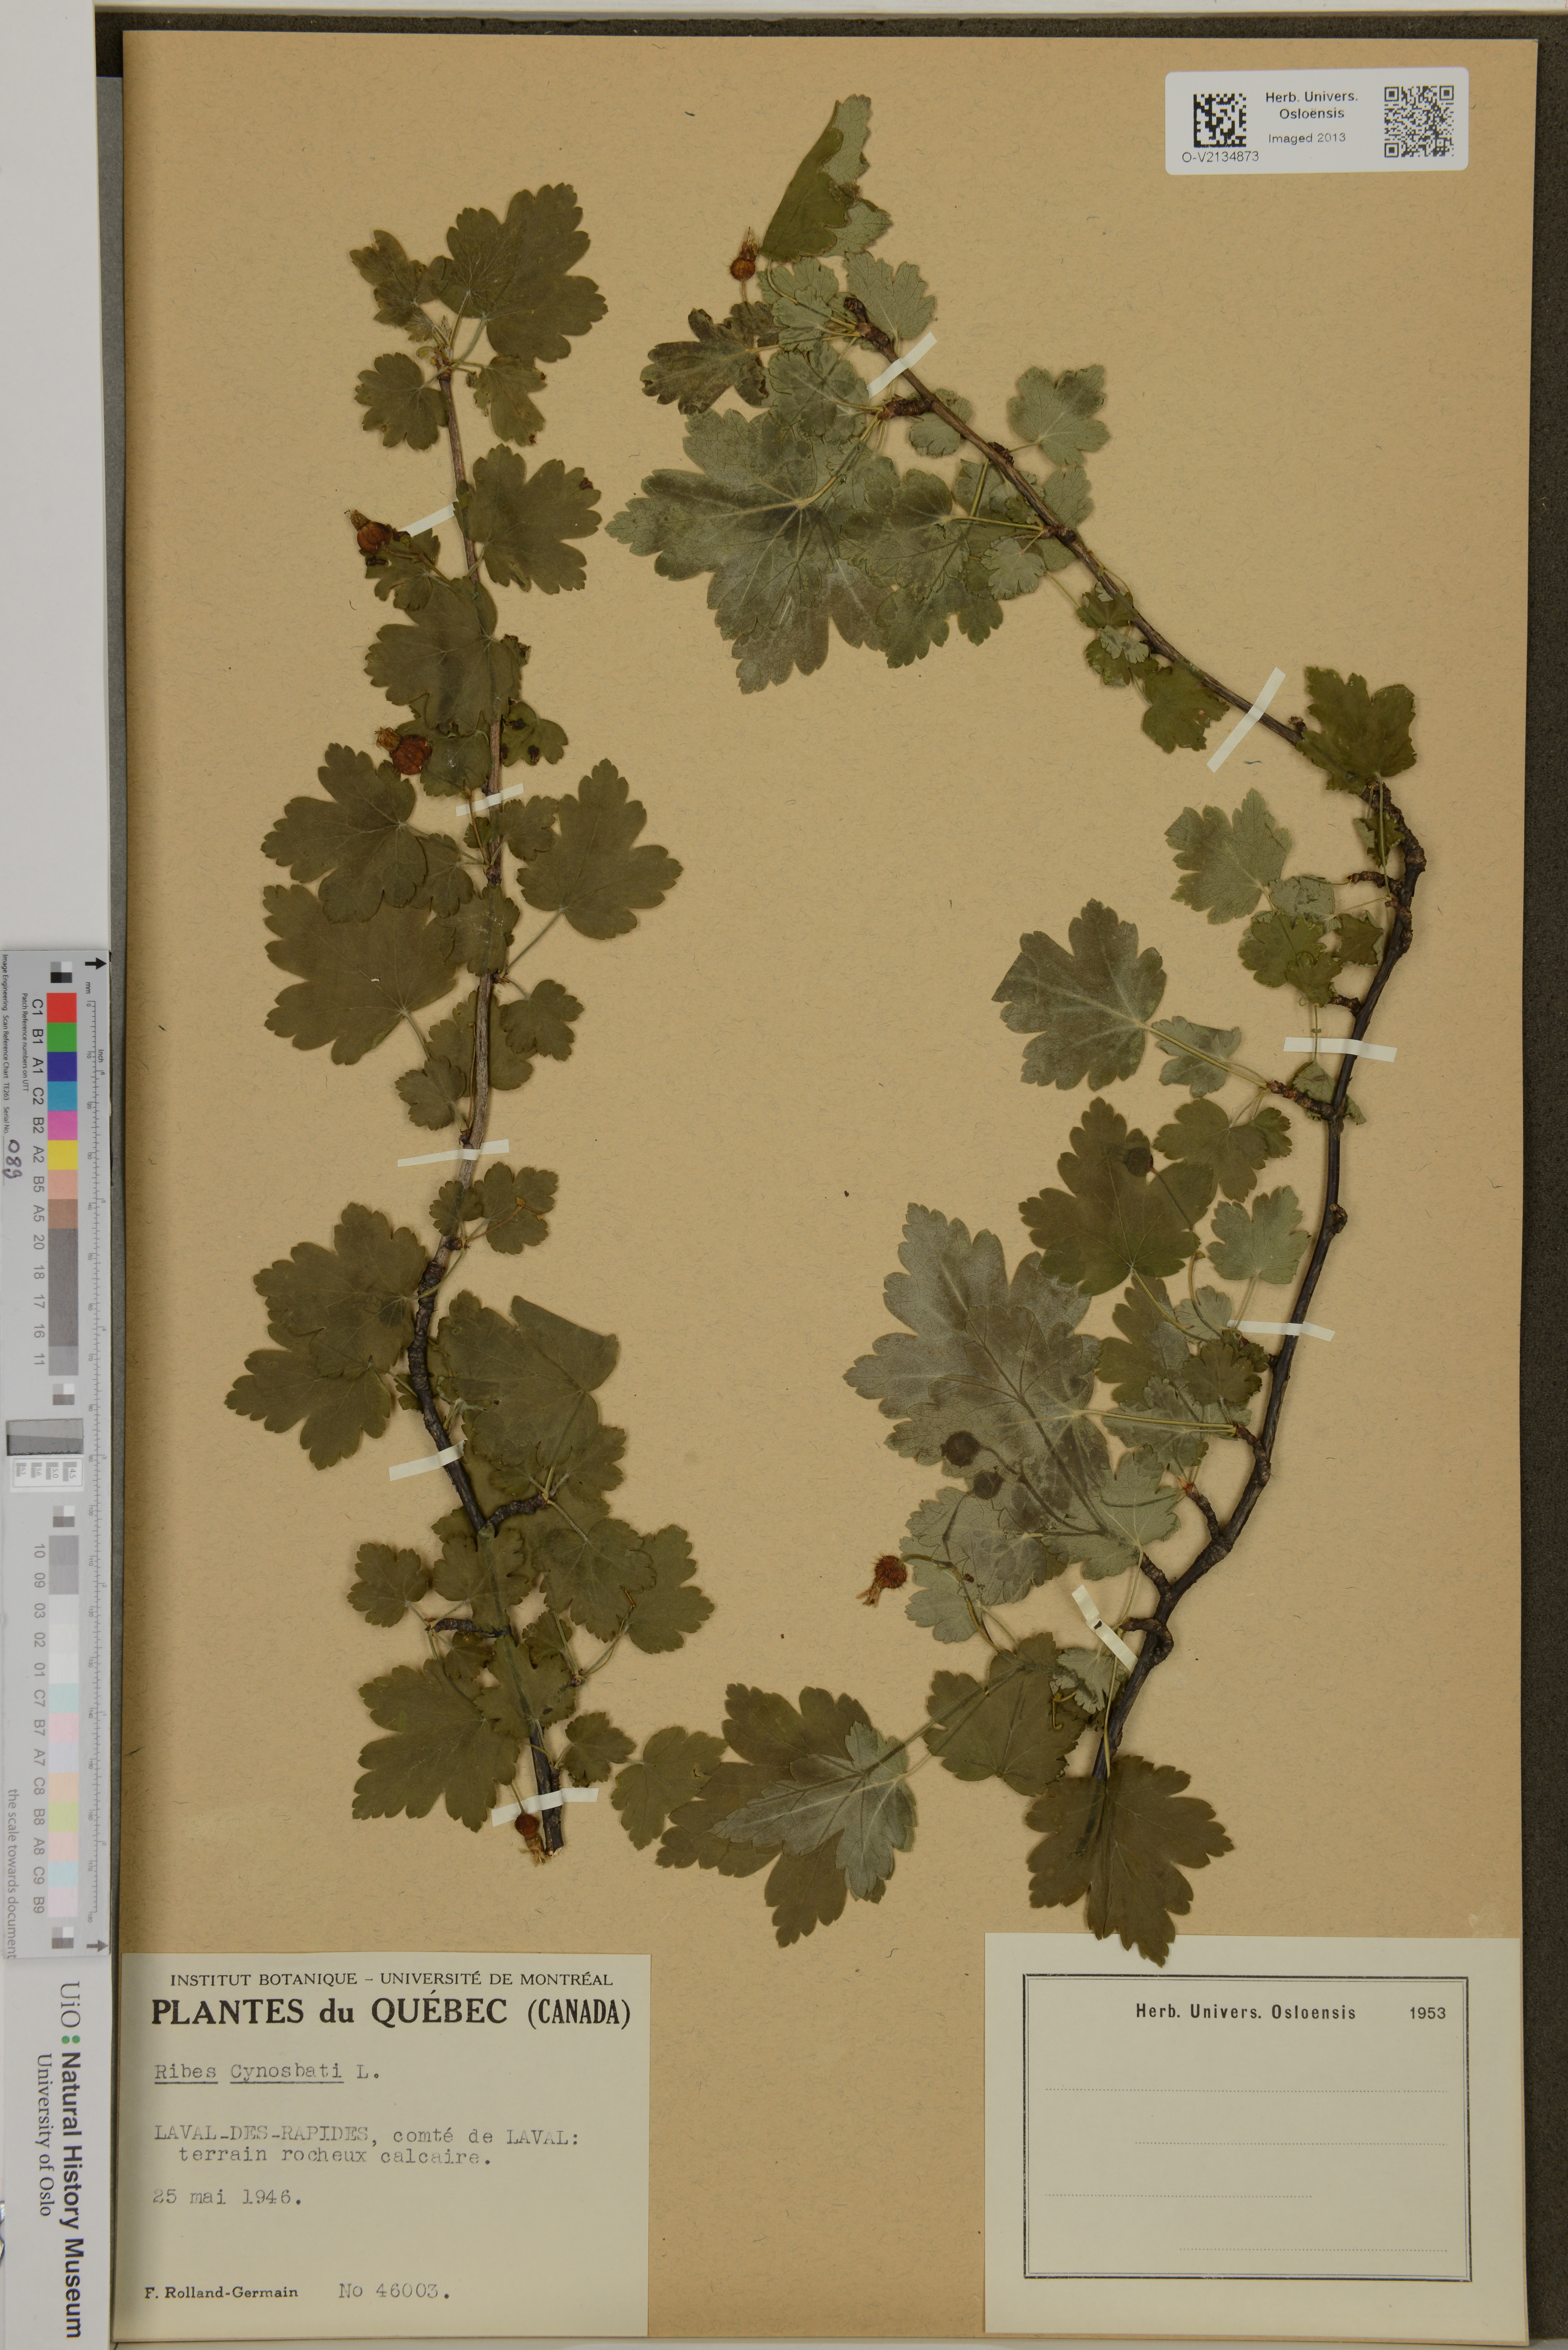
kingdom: Plantae
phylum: Tracheophyta
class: Magnoliopsida
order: Saxifragales
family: Grossulariaceae
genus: Ribes
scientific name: Ribes cynosbati
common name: American gooseberry
